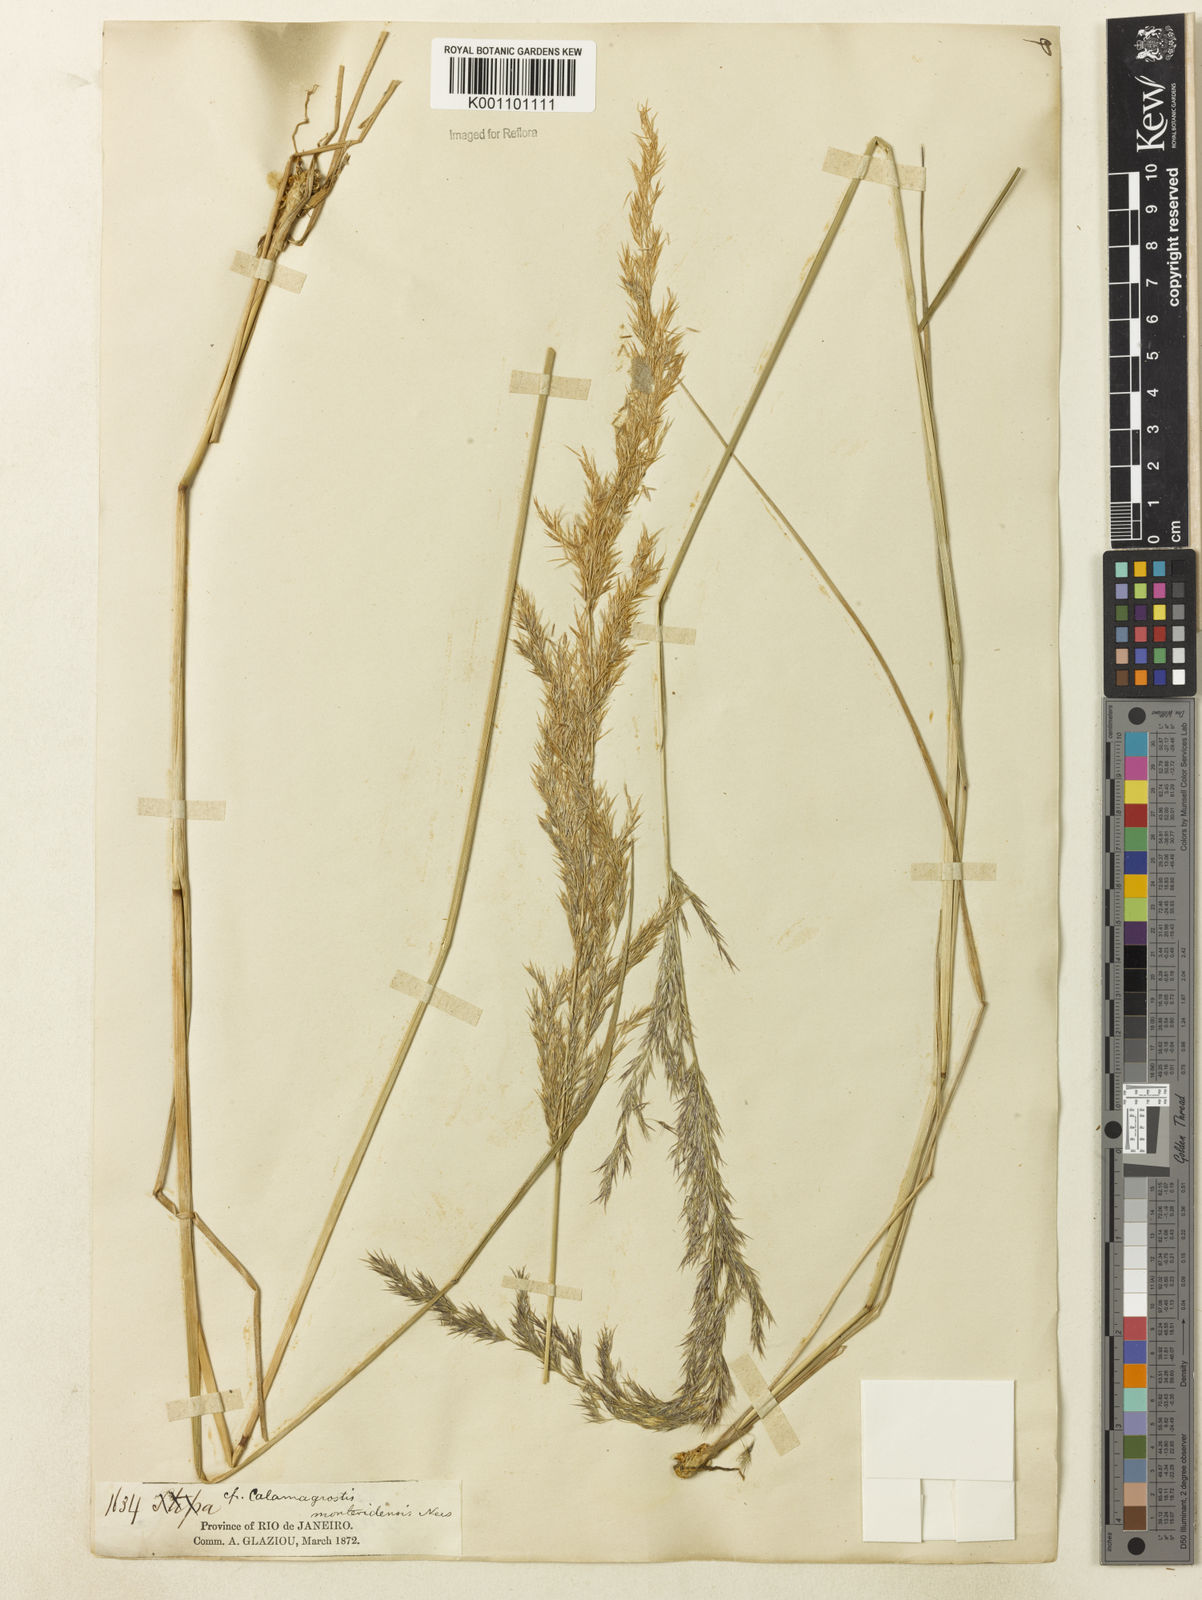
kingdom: Plantae
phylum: Tracheophyta
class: Liliopsida
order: Poales
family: Poaceae
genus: Cinnagrostis
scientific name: Cinnagrostis viridiflavescens
